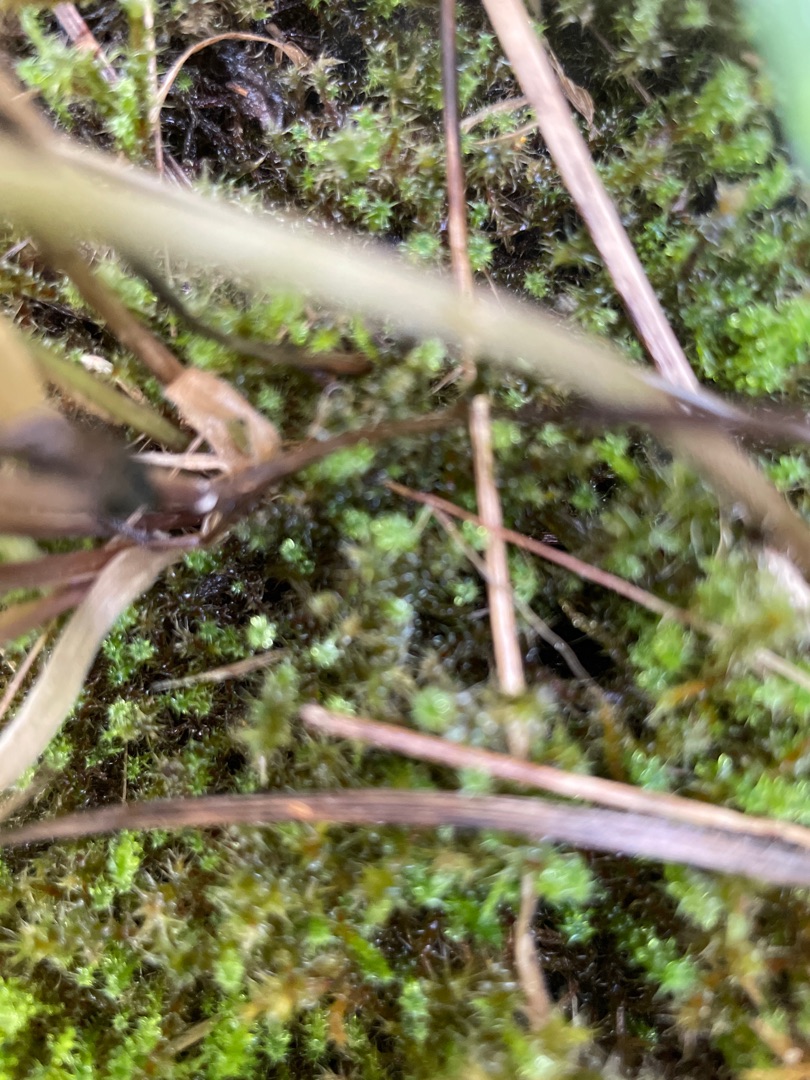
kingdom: Plantae
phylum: Bryophyta
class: Bryopsida
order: Hypnales
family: Hylocomiaceae
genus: Rhytidiadelphus
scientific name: Rhytidiadelphus squarrosus
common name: Plæne-kransemos
